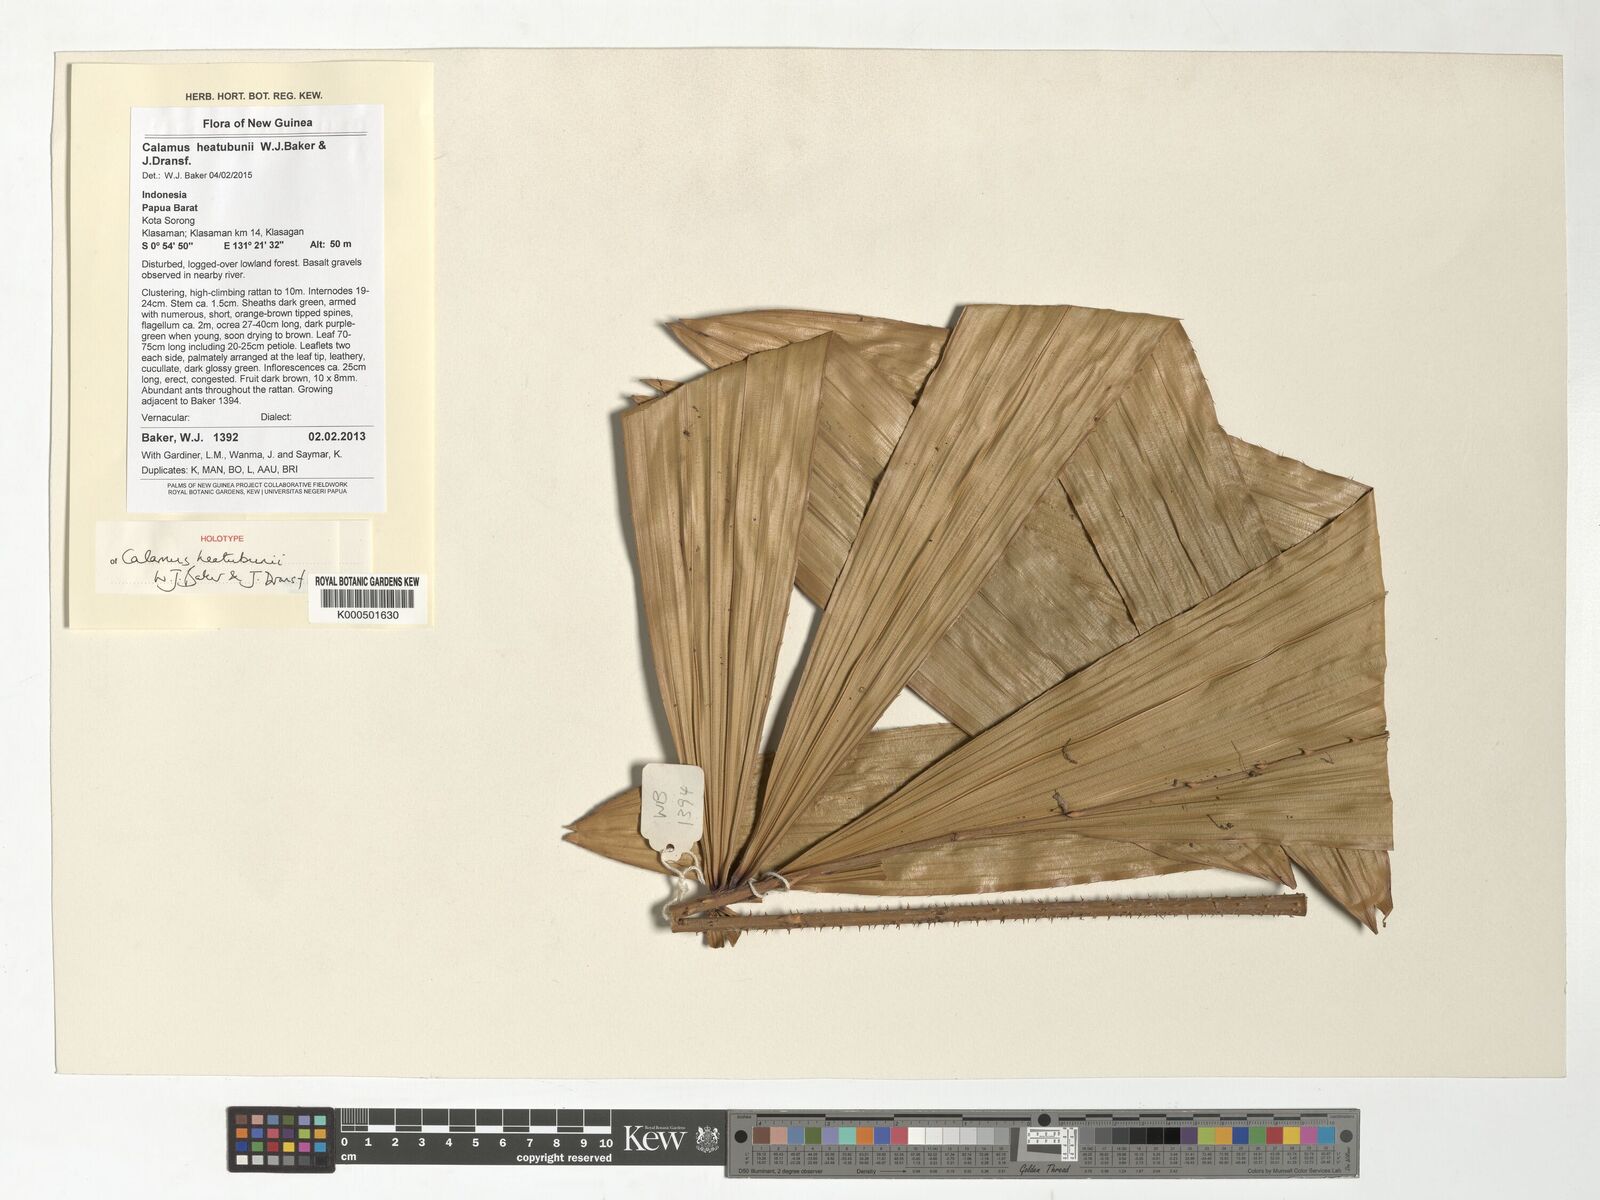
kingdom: Plantae
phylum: Tracheophyta
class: Liliopsida
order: Arecales
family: Arecaceae
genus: Calamus
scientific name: Calamus heatubunii
